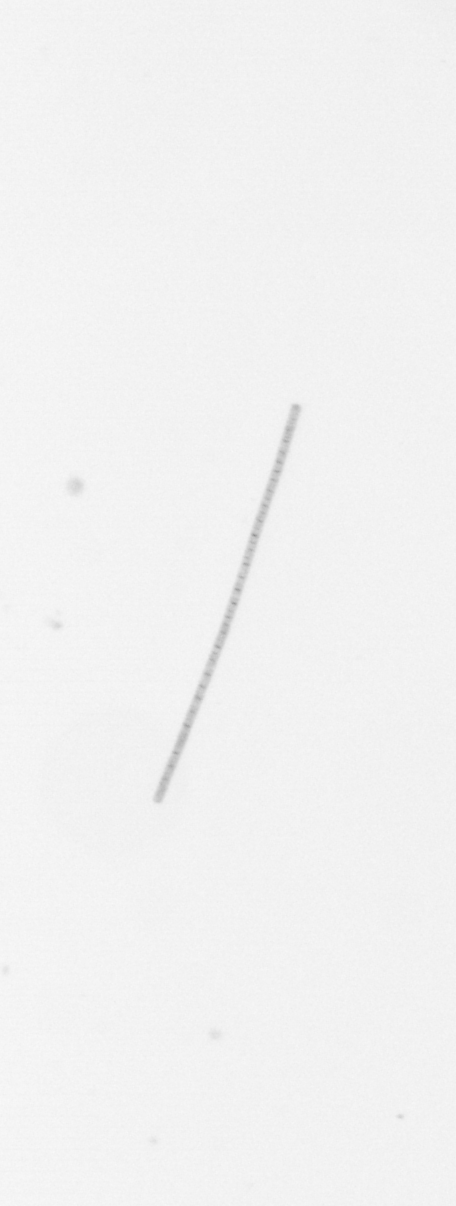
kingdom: Chromista
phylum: Ochrophyta
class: Bacillariophyceae
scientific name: Bacillariophyceae
